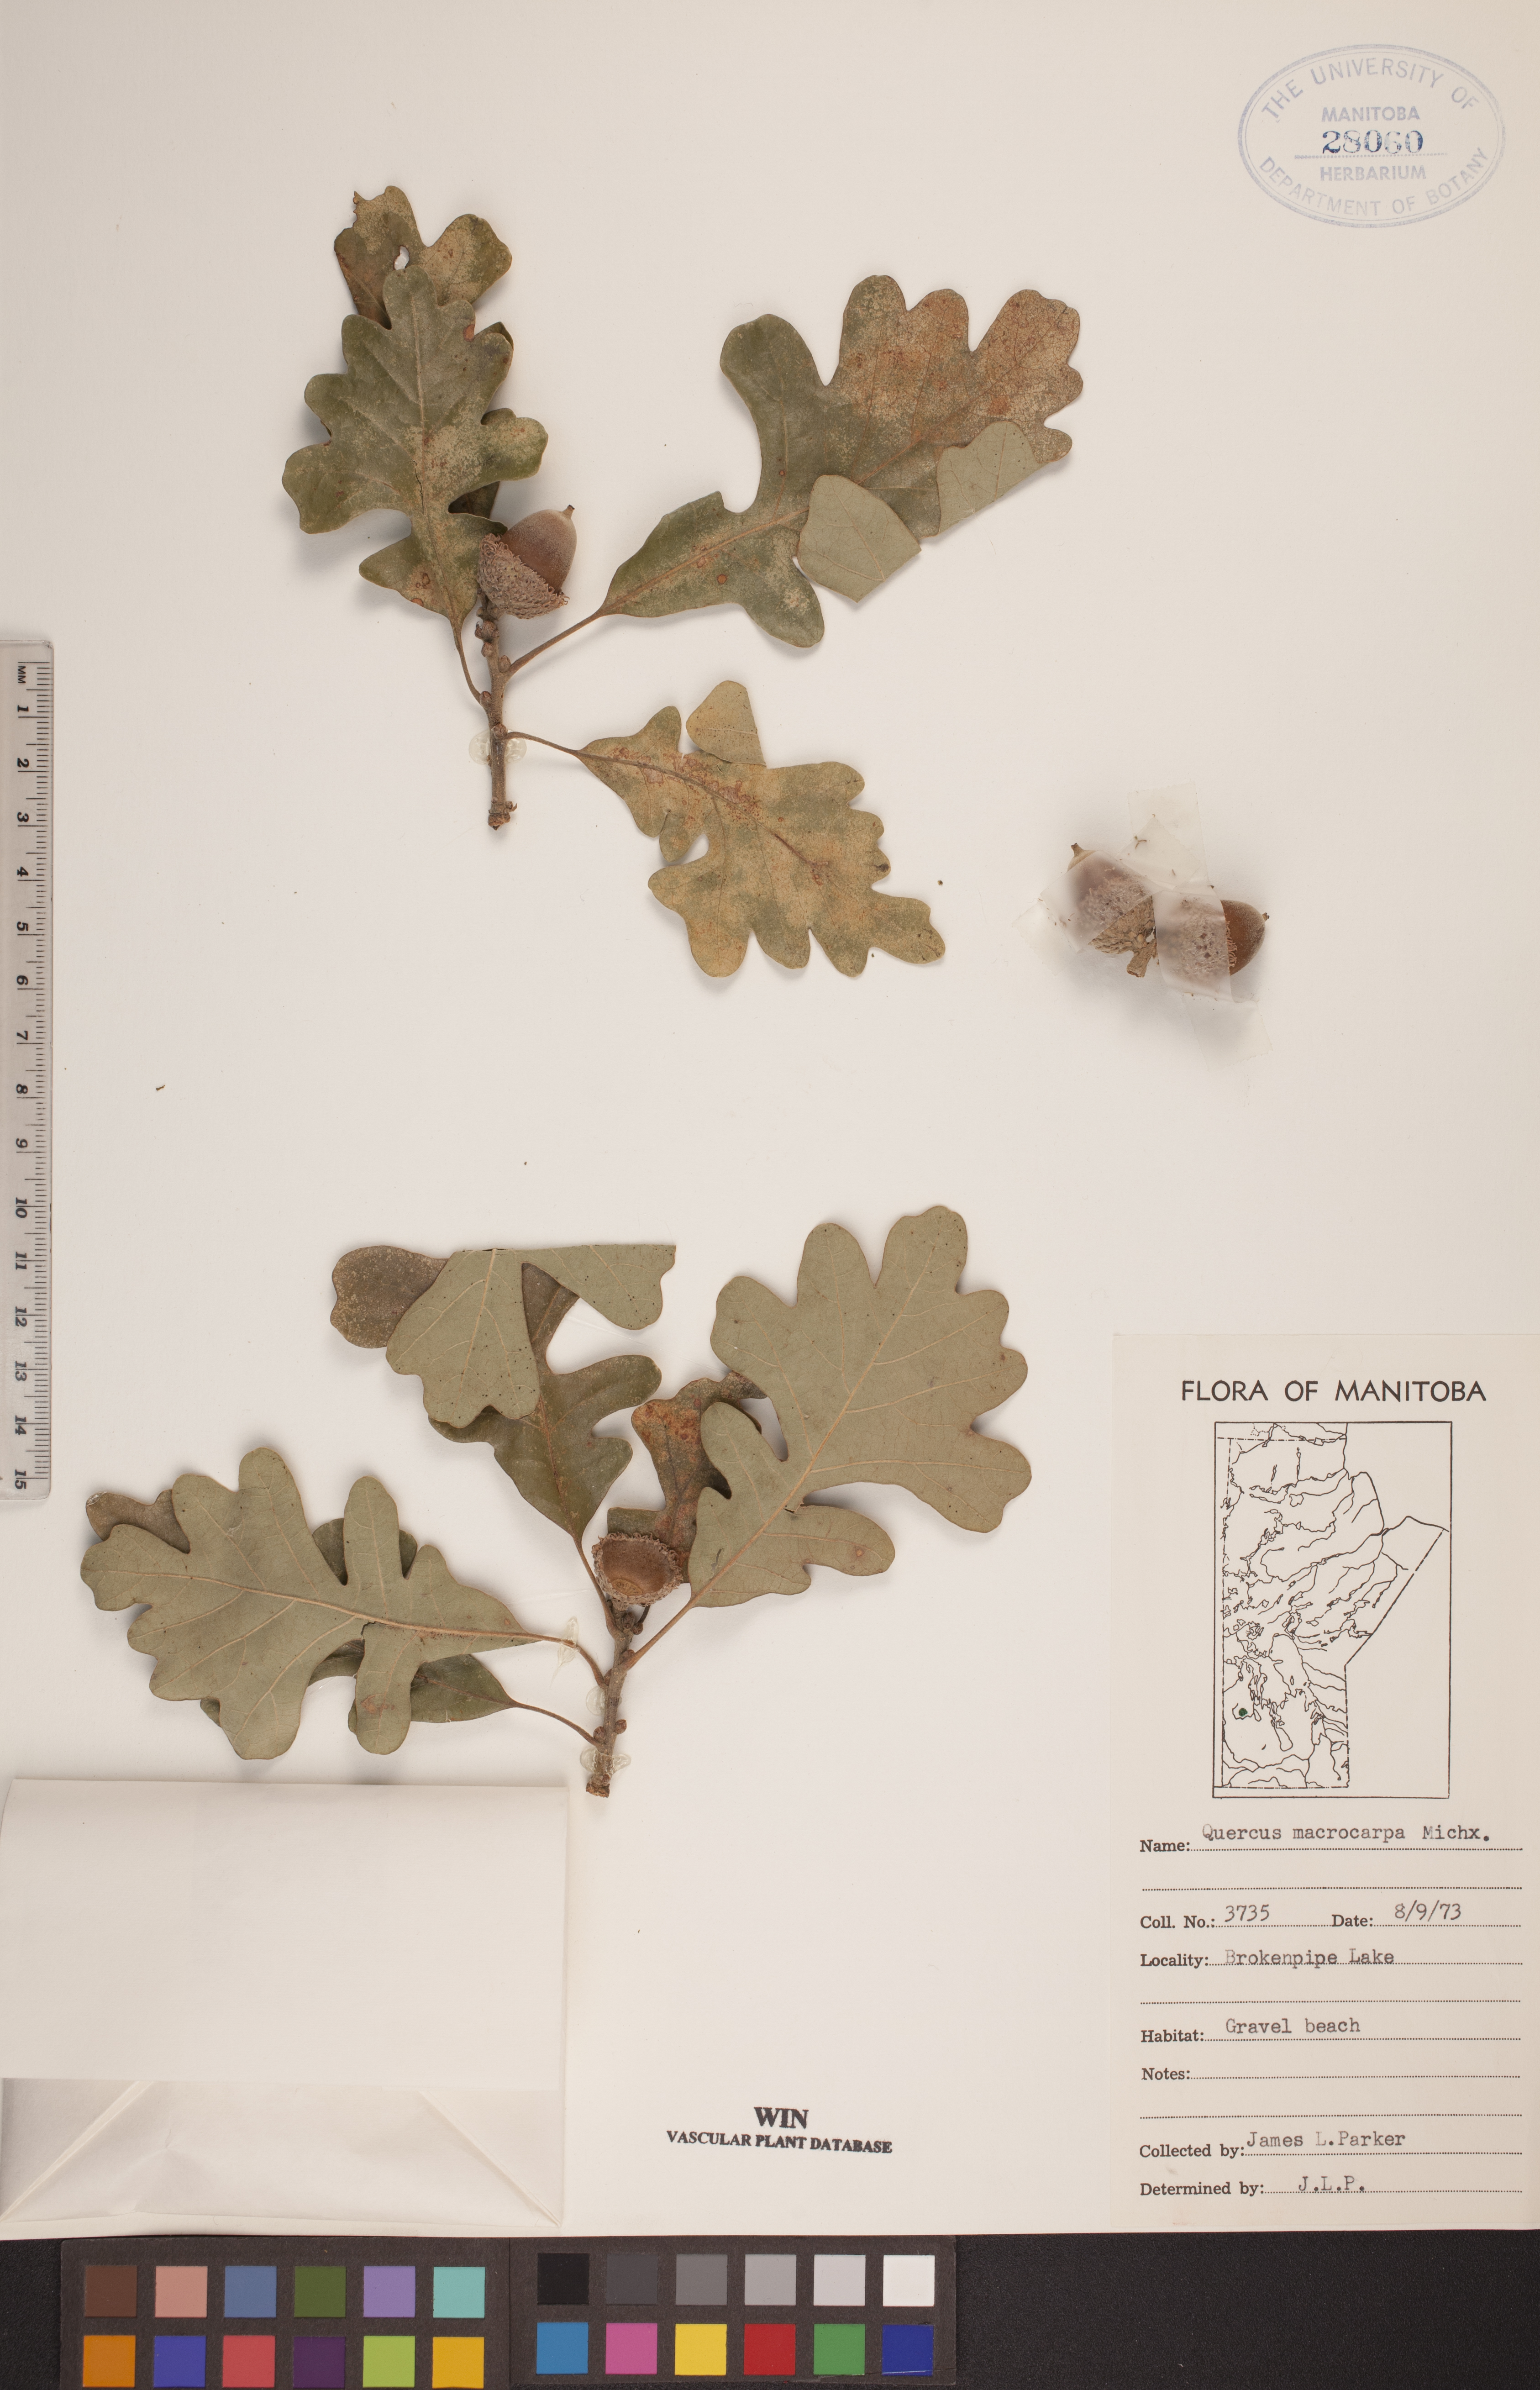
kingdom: Plantae
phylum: Tracheophyta
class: Magnoliopsida
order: Fagales
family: Fagaceae
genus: Quercus
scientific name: Quercus macrocarpa
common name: Bur oak
